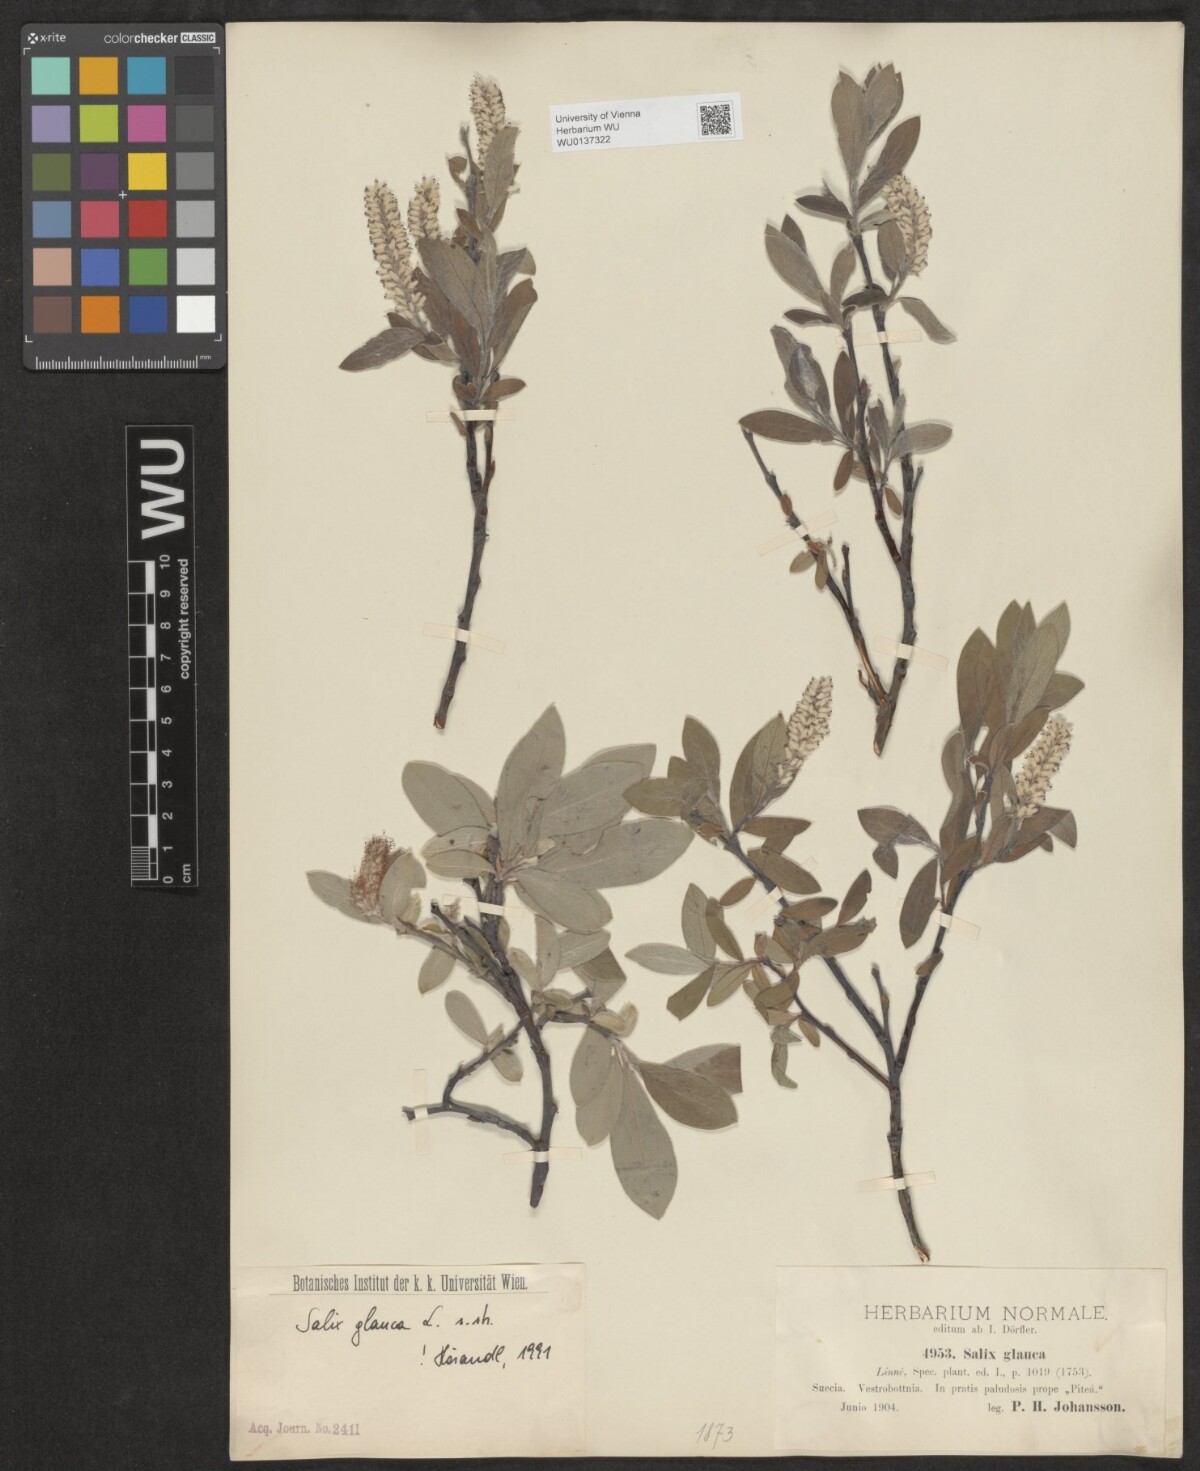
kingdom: Plantae
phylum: Tracheophyta
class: Magnoliopsida
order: Malpighiales
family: Salicaceae
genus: Salix
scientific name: Salix glauca
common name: Glaucous willow
